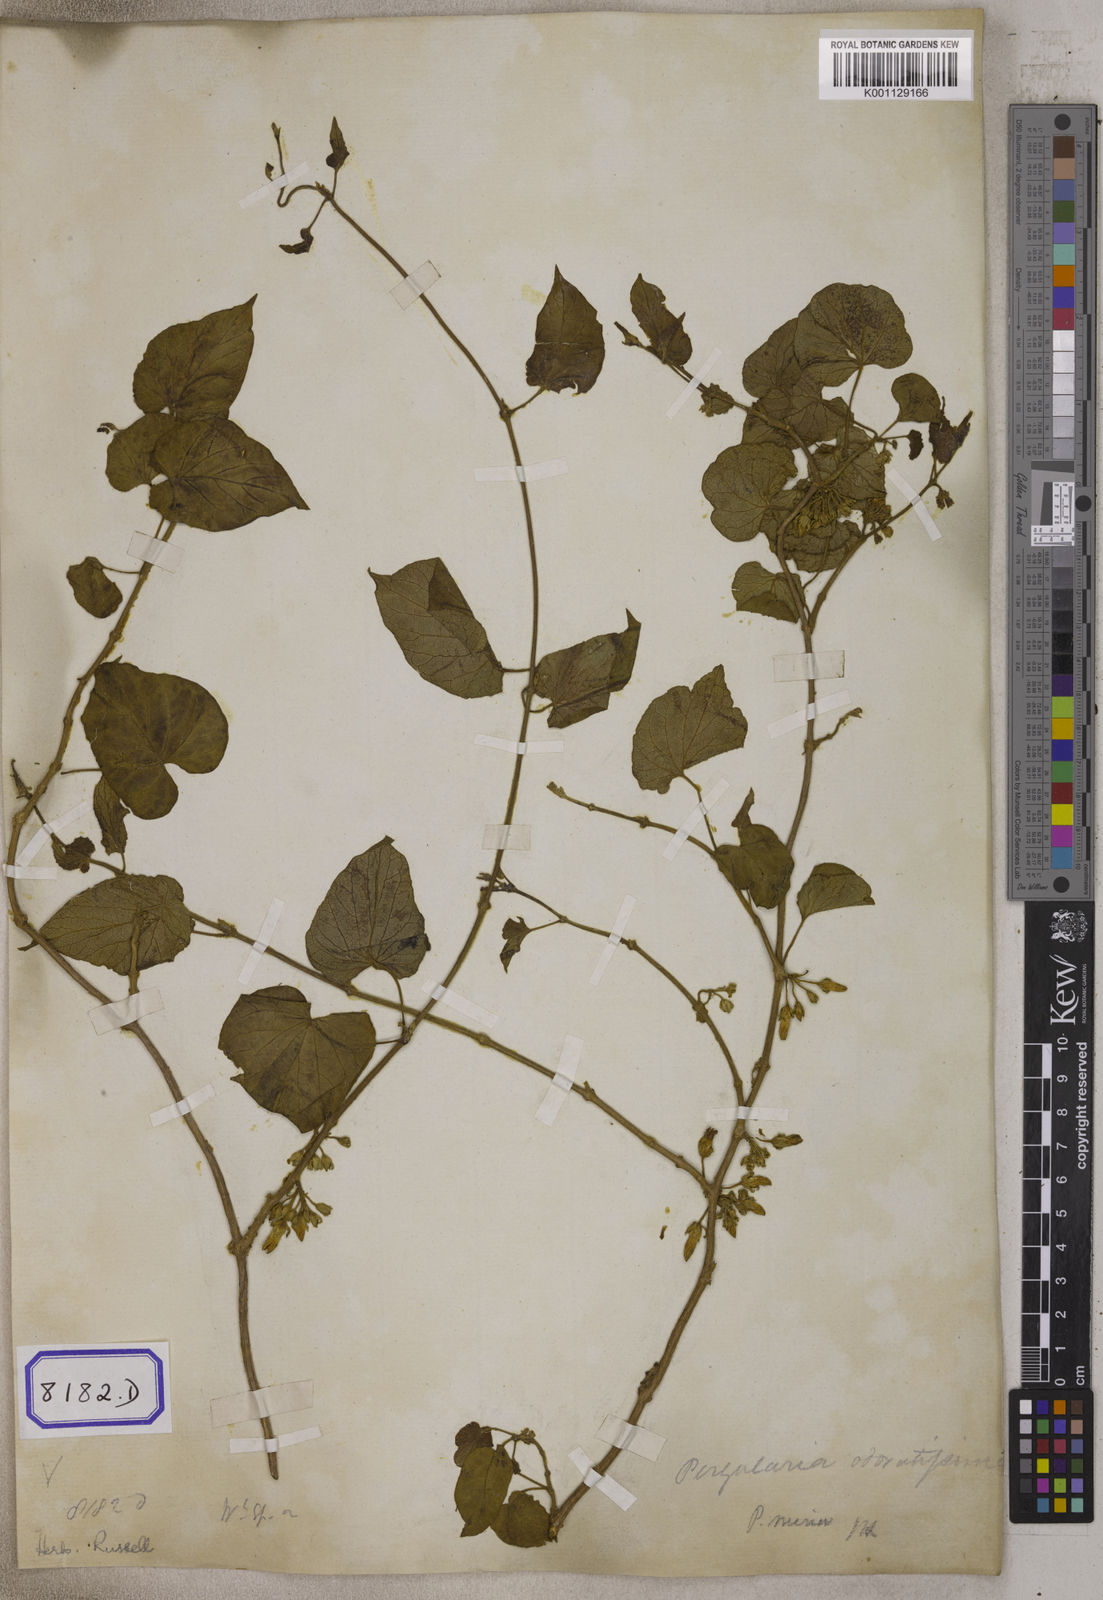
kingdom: Plantae
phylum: Tracheophyta
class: Magnoliopsida
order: Gentianales
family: Apocynaceae
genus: Telosma
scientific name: Telosma cordata
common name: Chinese-violet
